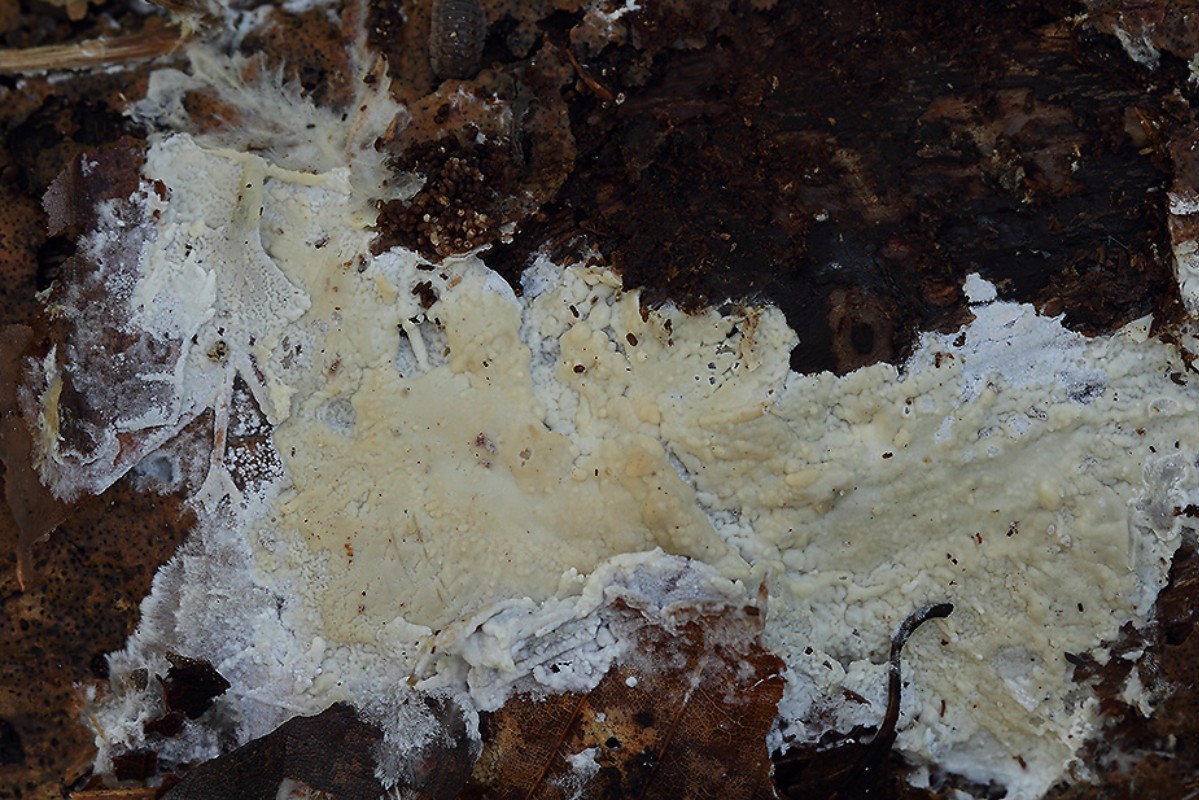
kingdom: Fungi
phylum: Basidiomycota
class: Agaricomycetes
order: Polyporales
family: Irpicaceae
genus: Efibula
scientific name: Efibula tuberculata
